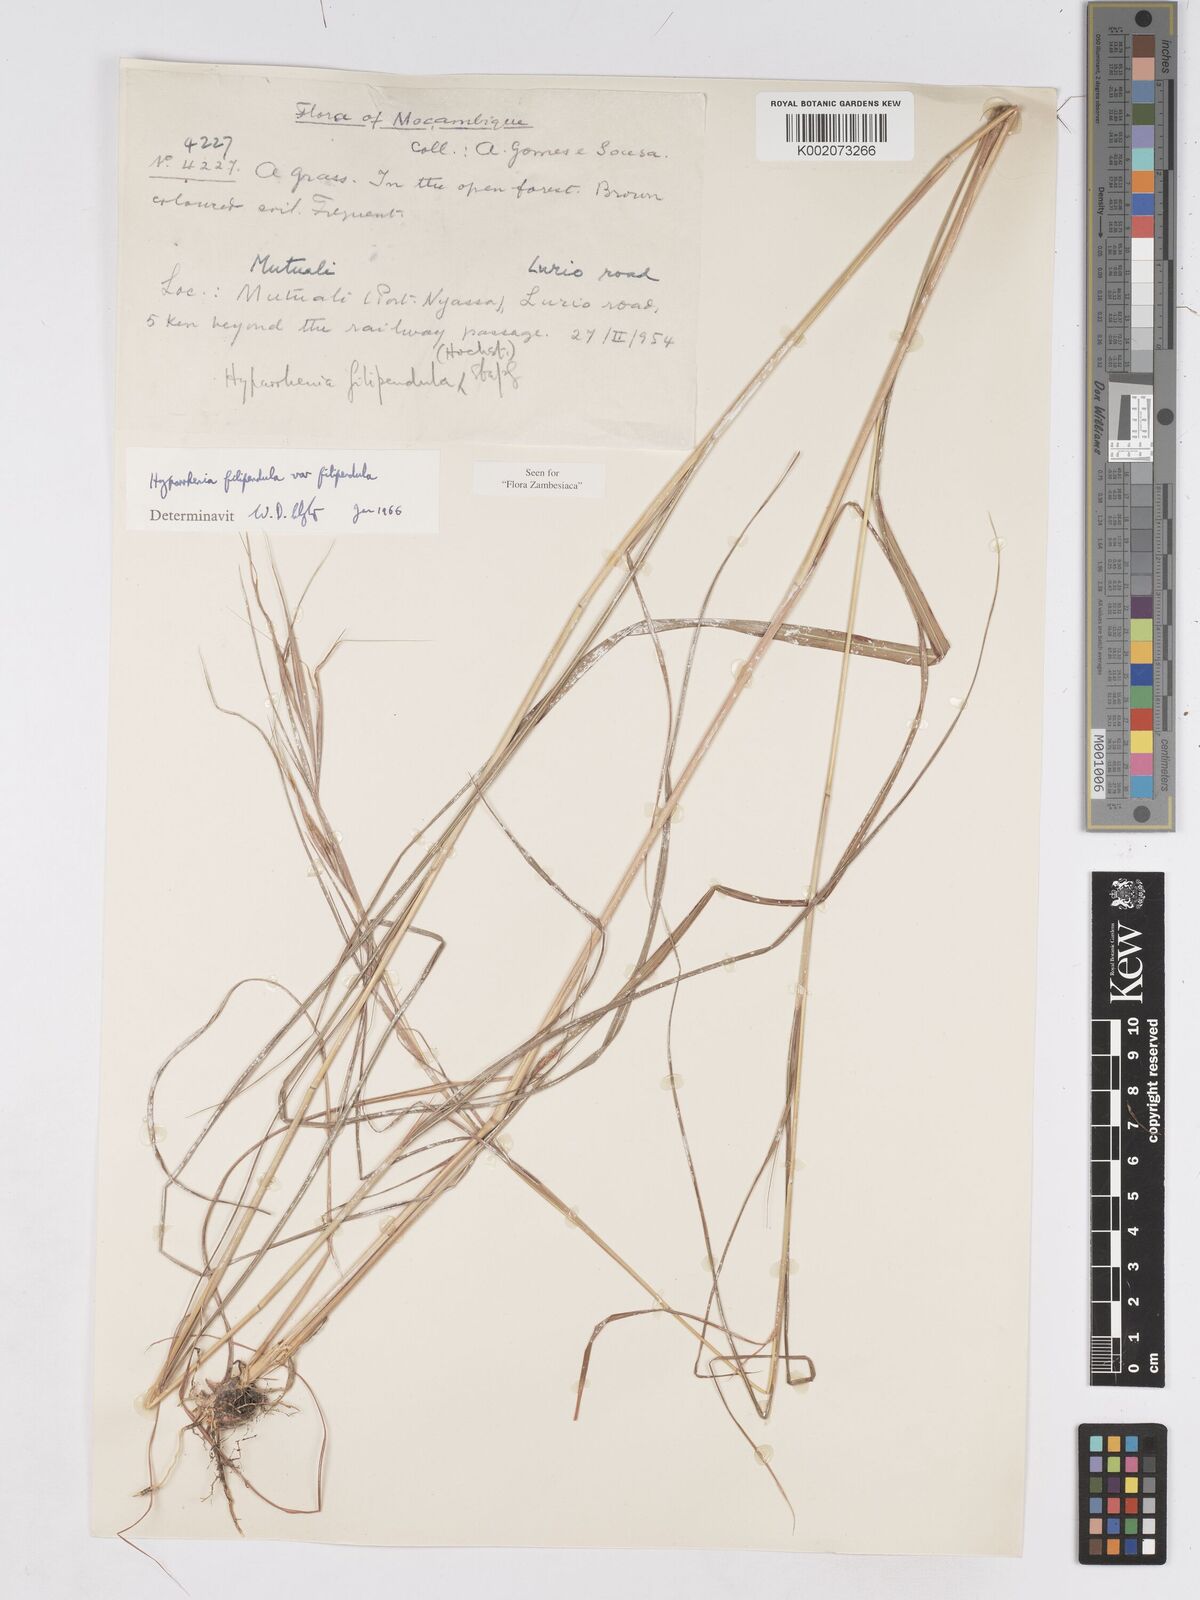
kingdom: Plantae
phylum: Tracheophyta
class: Liliopsida
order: Poales
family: Poaceae
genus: Hyparrhenia
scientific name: Hyparrhenia filipendula
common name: Tambookie grass
